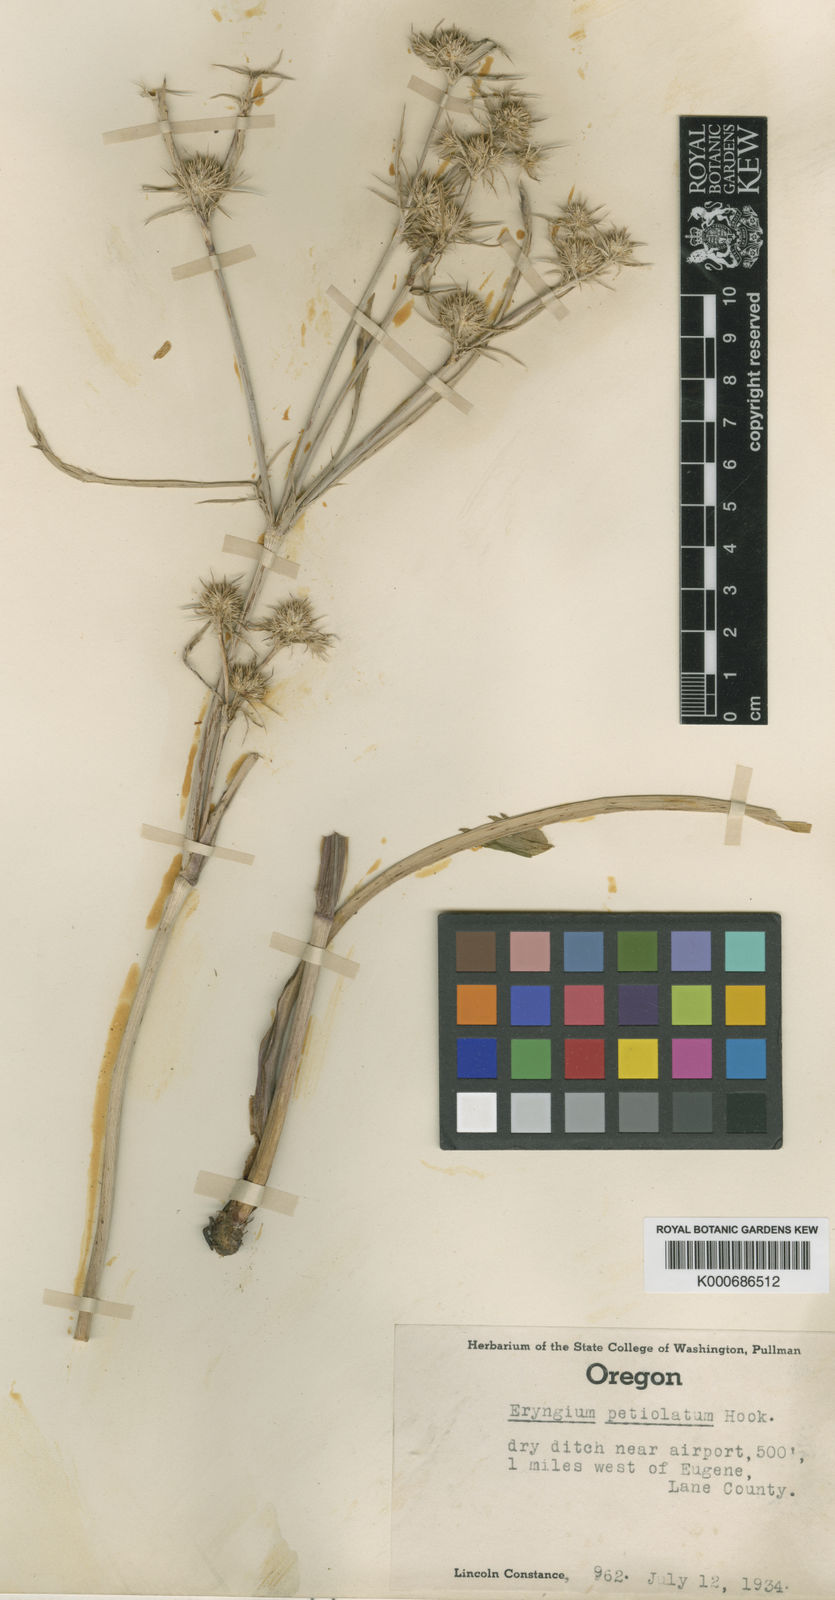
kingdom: Plantae
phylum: Tracheophyta
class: Magnoliopsida
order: Apiales
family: Apiaceae
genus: Eryngium
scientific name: Eryngium petiolatum
